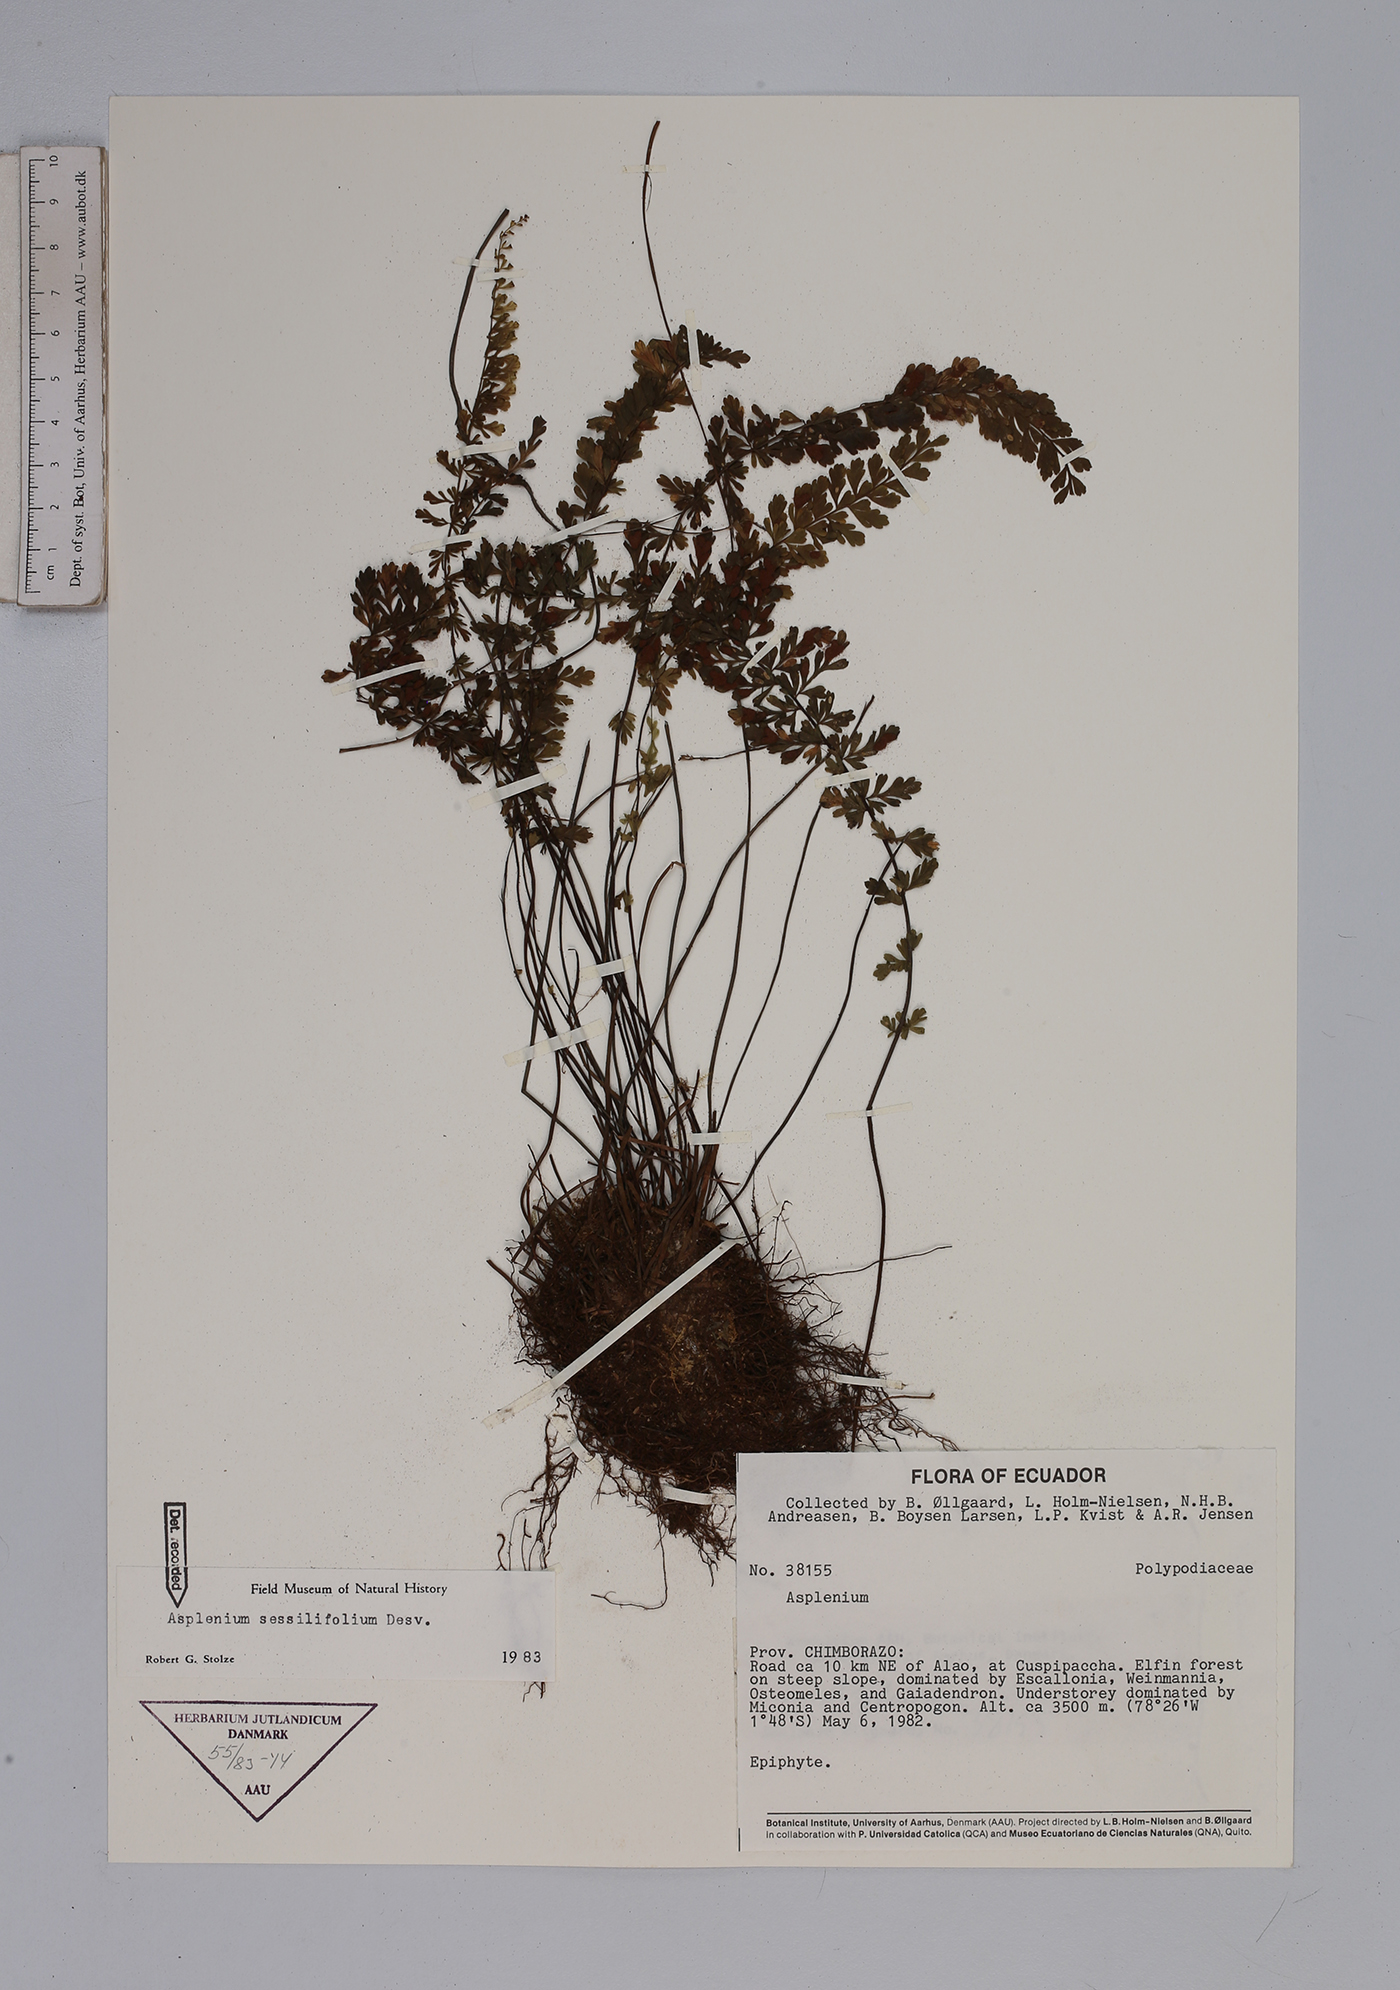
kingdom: Plantae
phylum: Tracheophyta
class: Polypodiopsida
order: Polypodiales
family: Aspleniaceae
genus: Asplenium
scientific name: Asplenium sessilifolium
